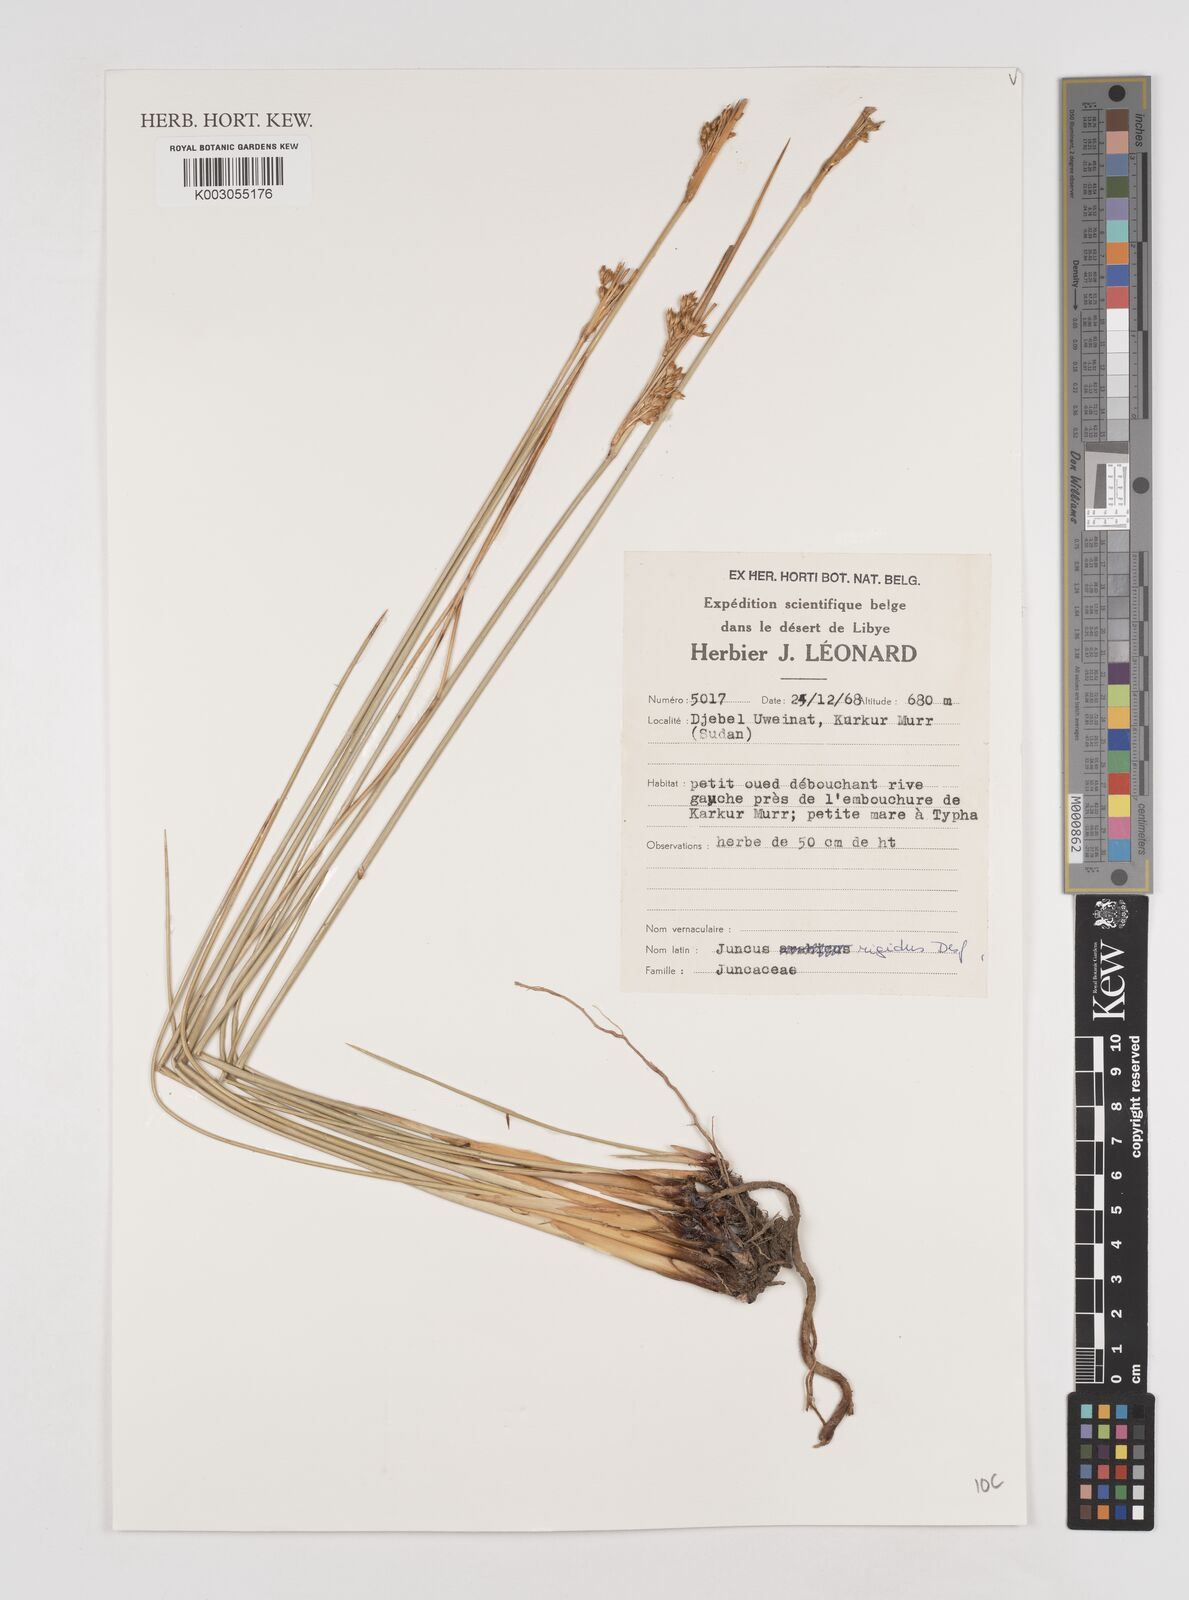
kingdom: Plantae
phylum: Tracheophyta
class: Liliopsida
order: Poales
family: Juncaceae
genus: Juncus
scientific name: Juncus rigidus
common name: Hard sea rush
